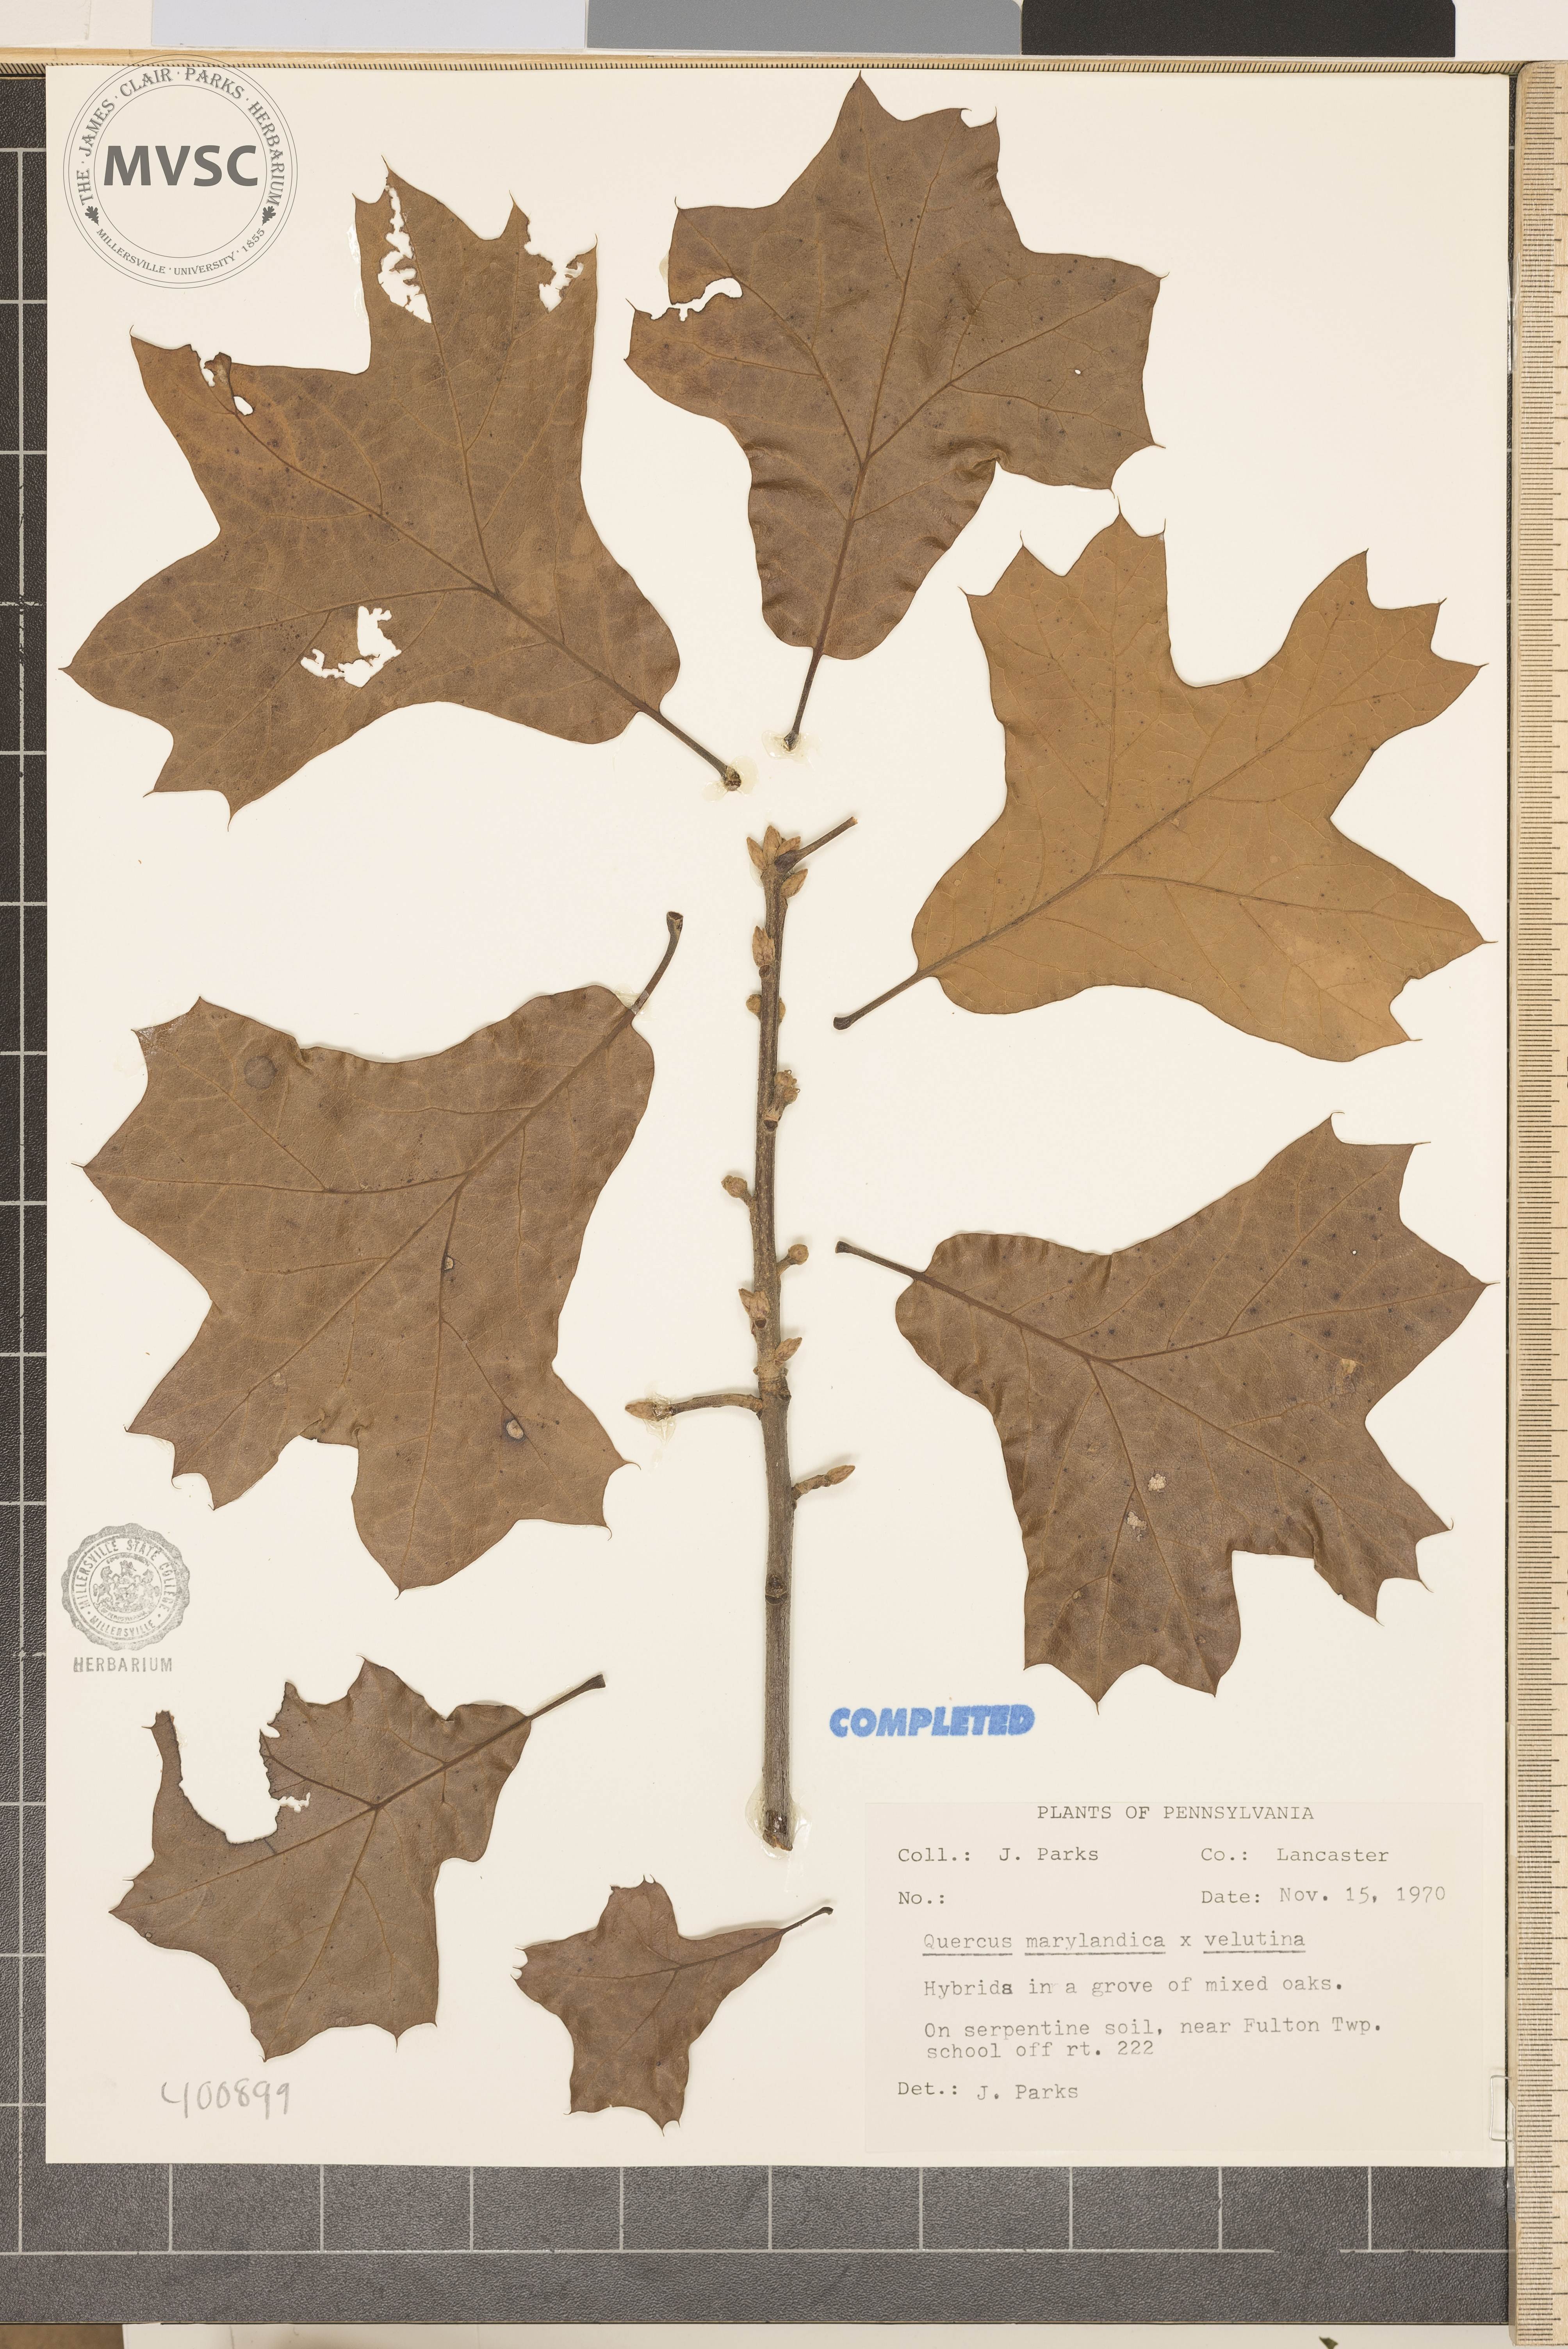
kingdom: Plantae
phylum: Tracheophyta
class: Magnoliopsida
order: Fagales
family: Fagaceae
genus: Quercus
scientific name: Quercus
